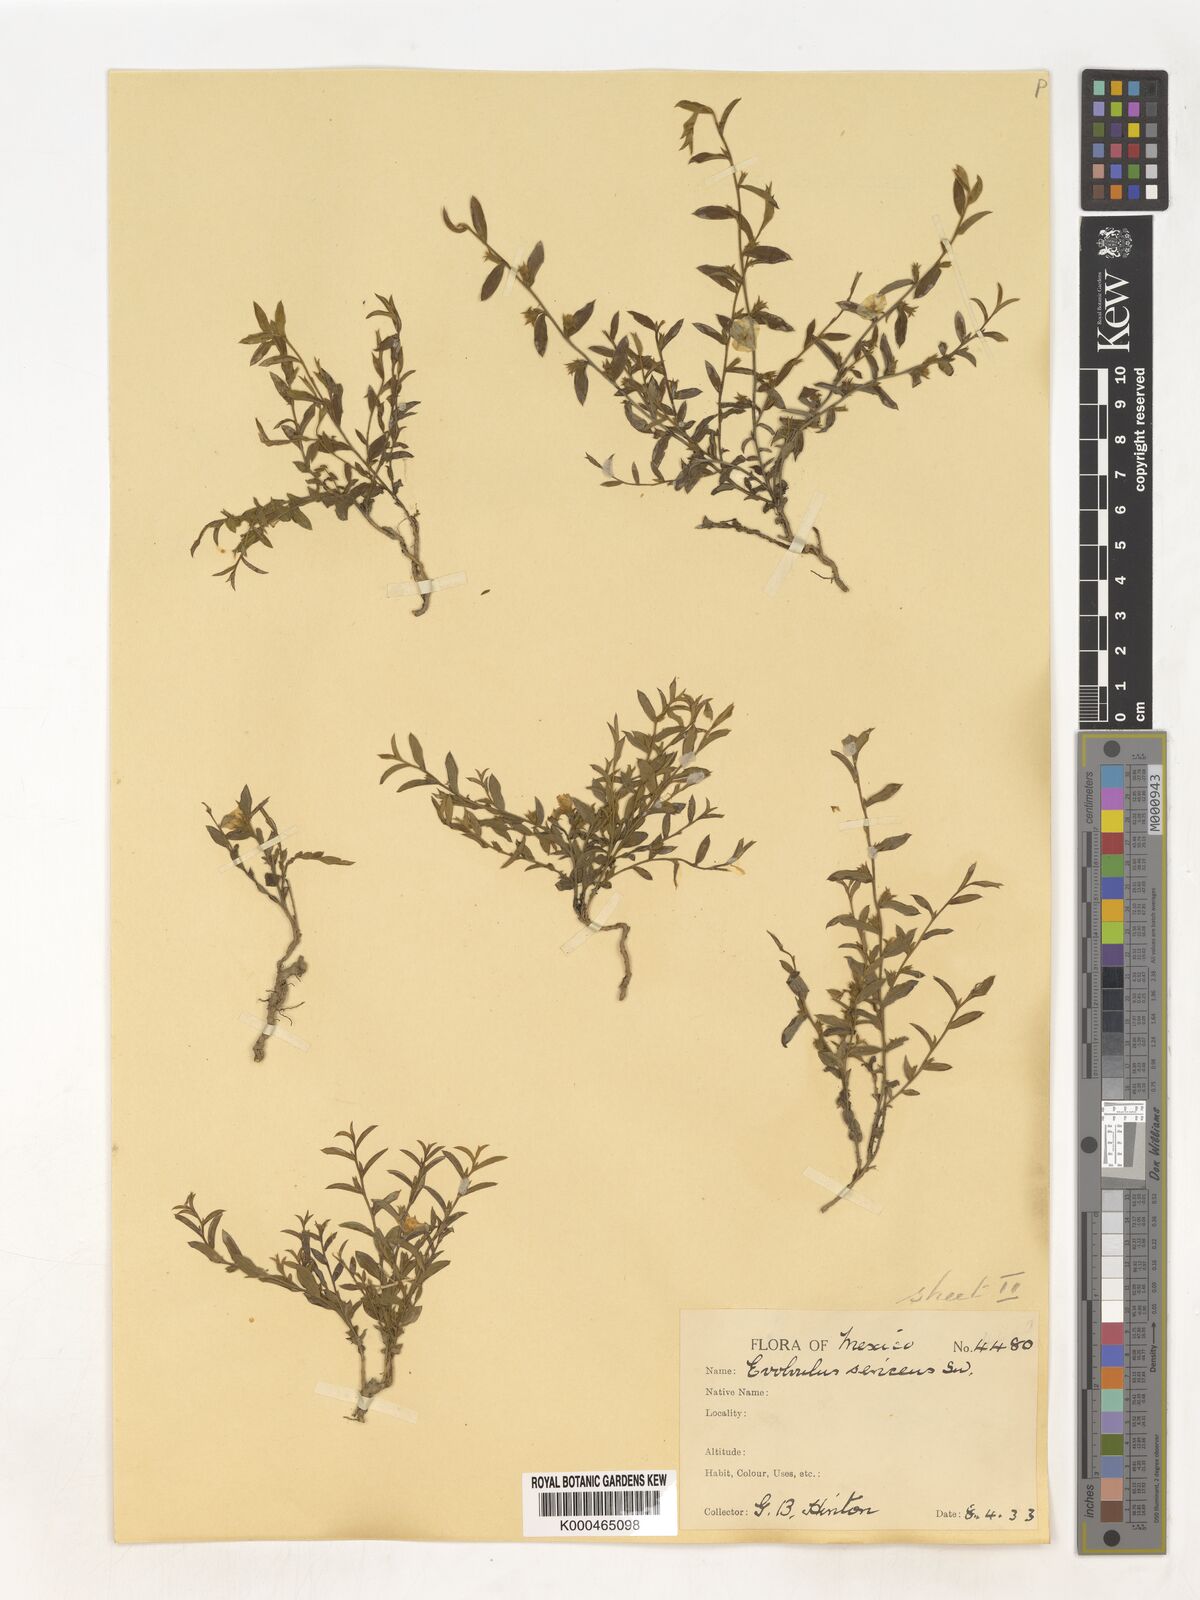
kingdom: Plantae
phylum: Tracheophyta
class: Magnoliopsida
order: Solanales
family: Convolvulaceae
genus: Evolvulus
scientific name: Evolvulus
